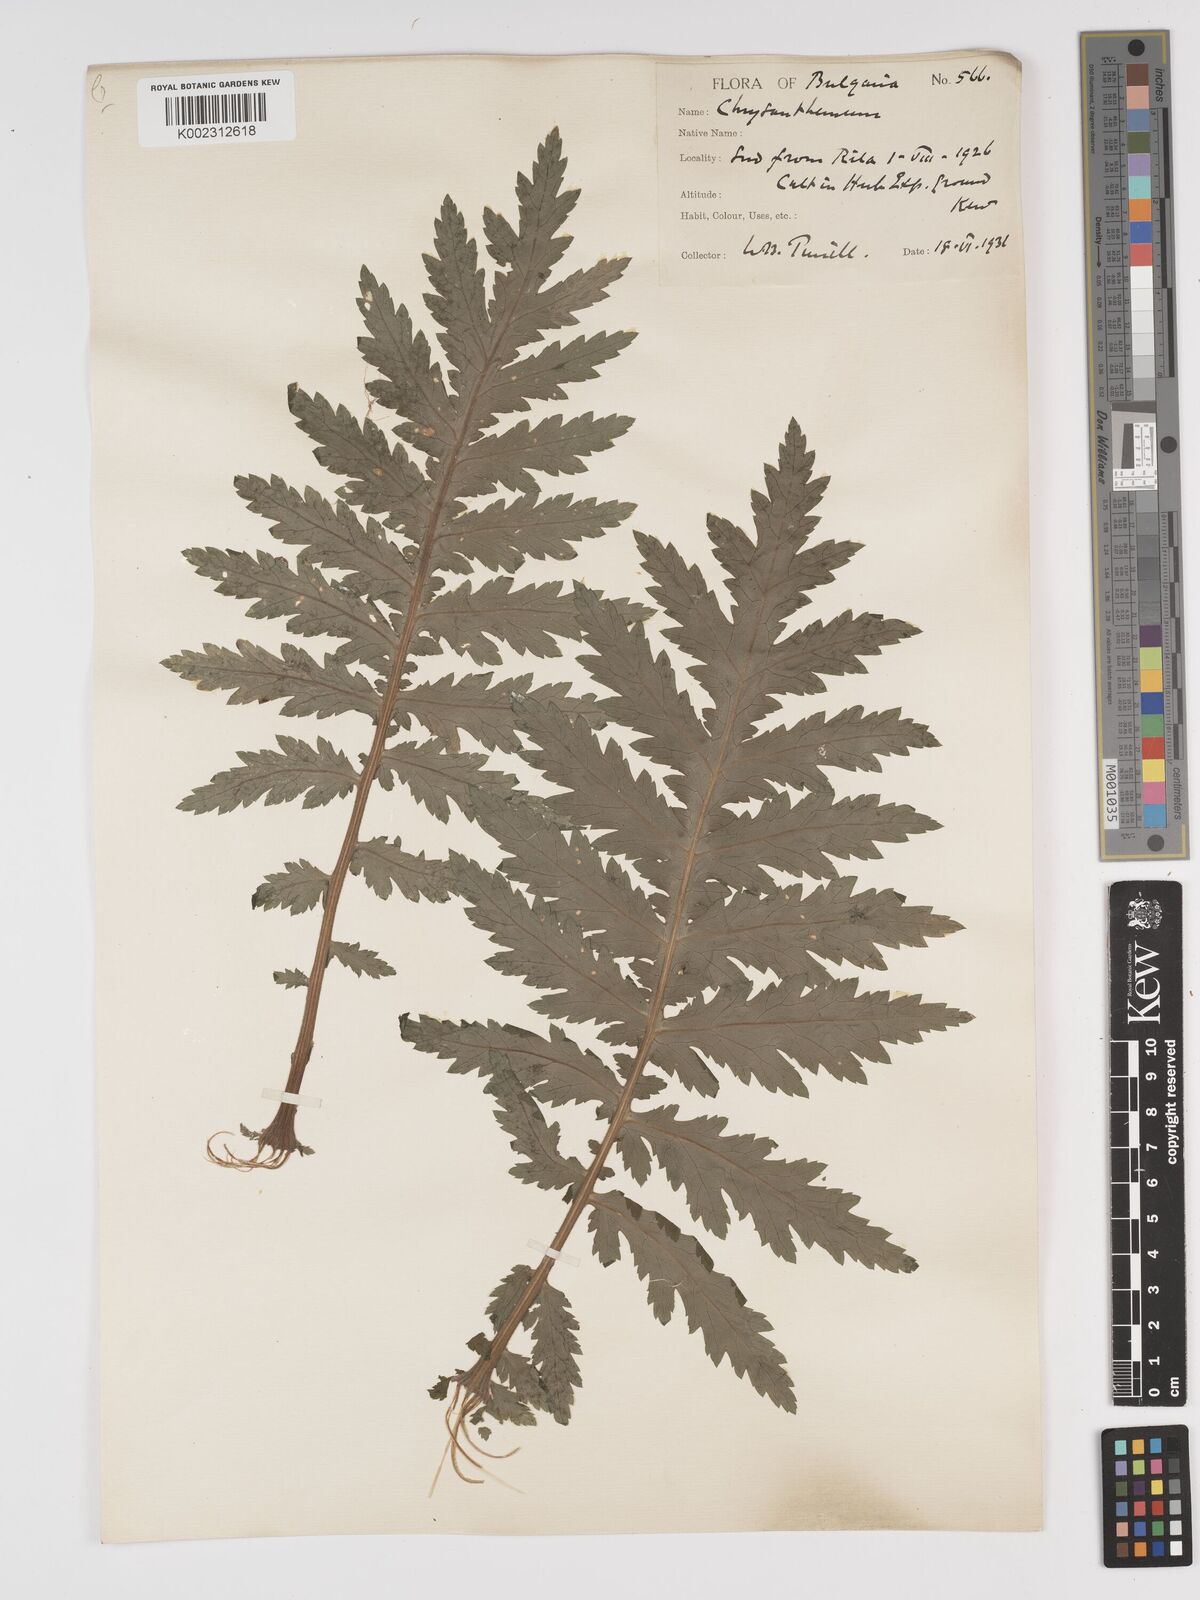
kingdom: Plantae
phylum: Tracheophyta
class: Magnoliopsida
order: Asterales
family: Asteraceae
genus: Tanacetum
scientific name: Tanacetum macrophyllum
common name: Rayed tansy
